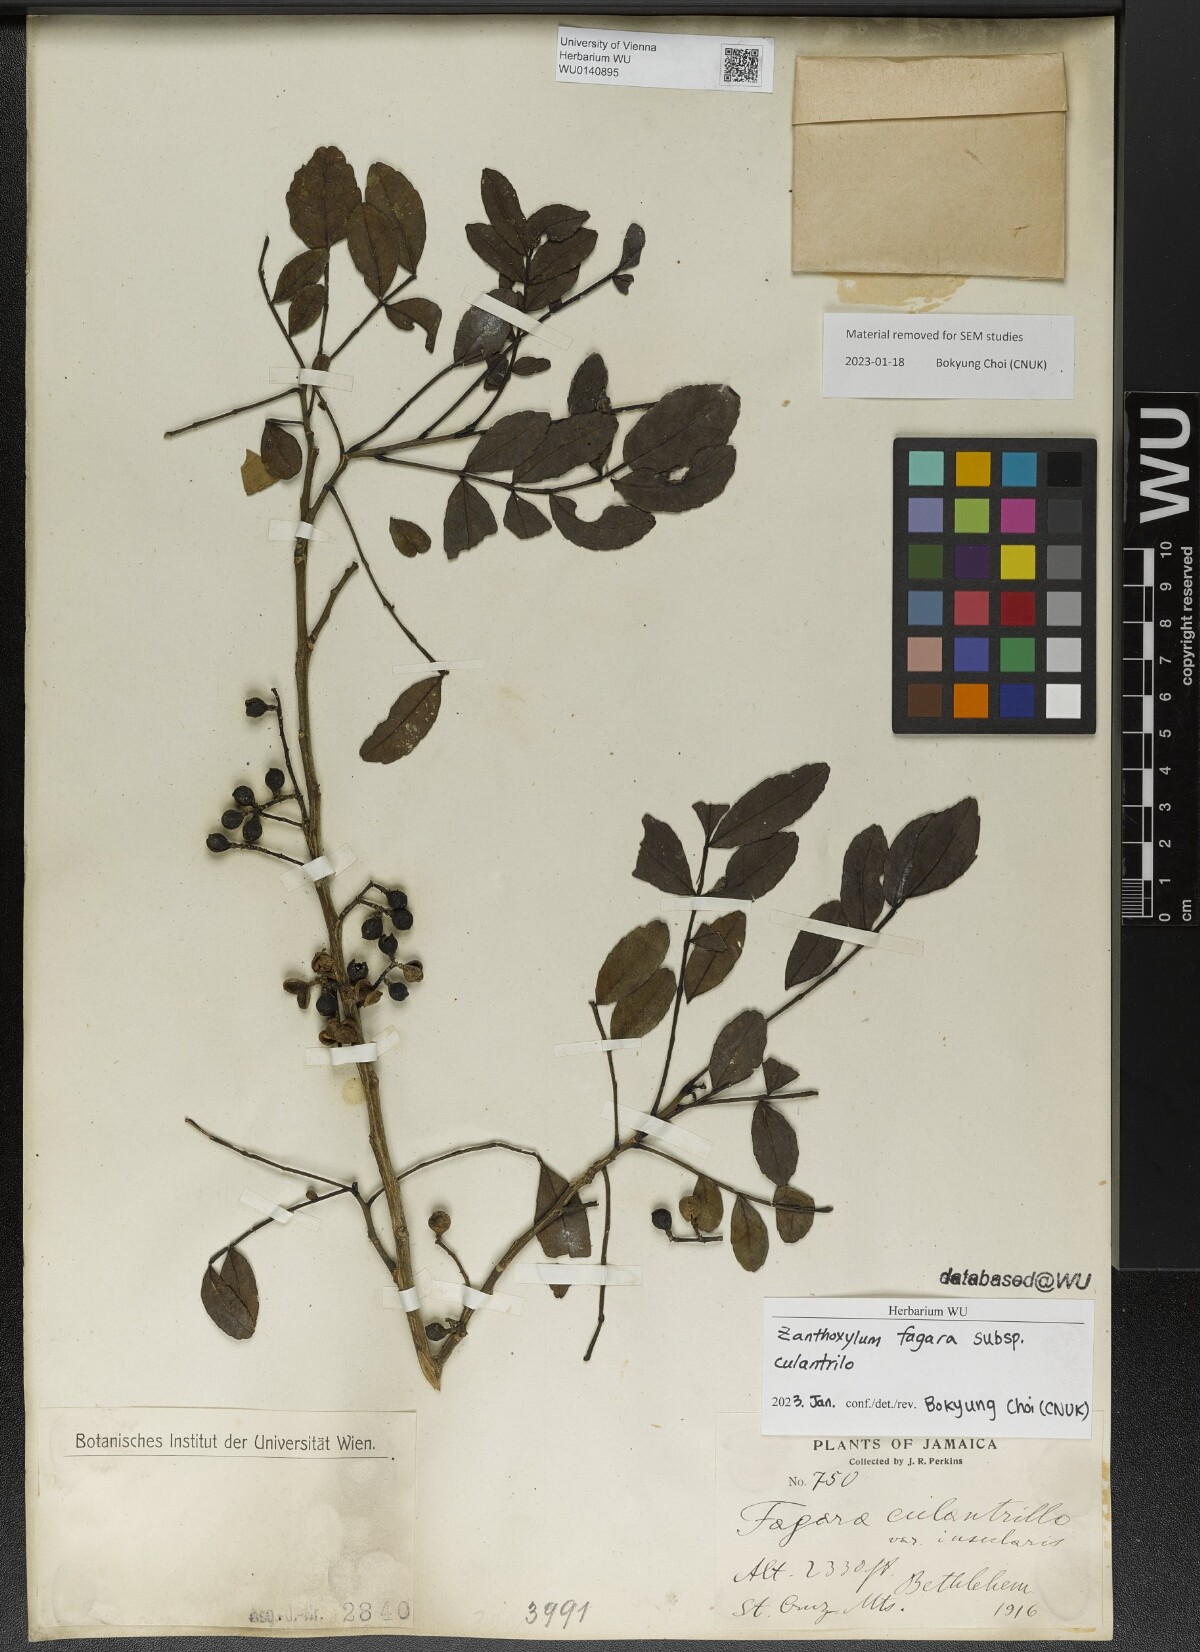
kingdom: Plantae
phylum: Tracheophyta
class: Magnoliopsida
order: Sapindales
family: Rutaceae
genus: Zanthoxylum
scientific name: Zanthoxylum fagara
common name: Lime prickly-ash
